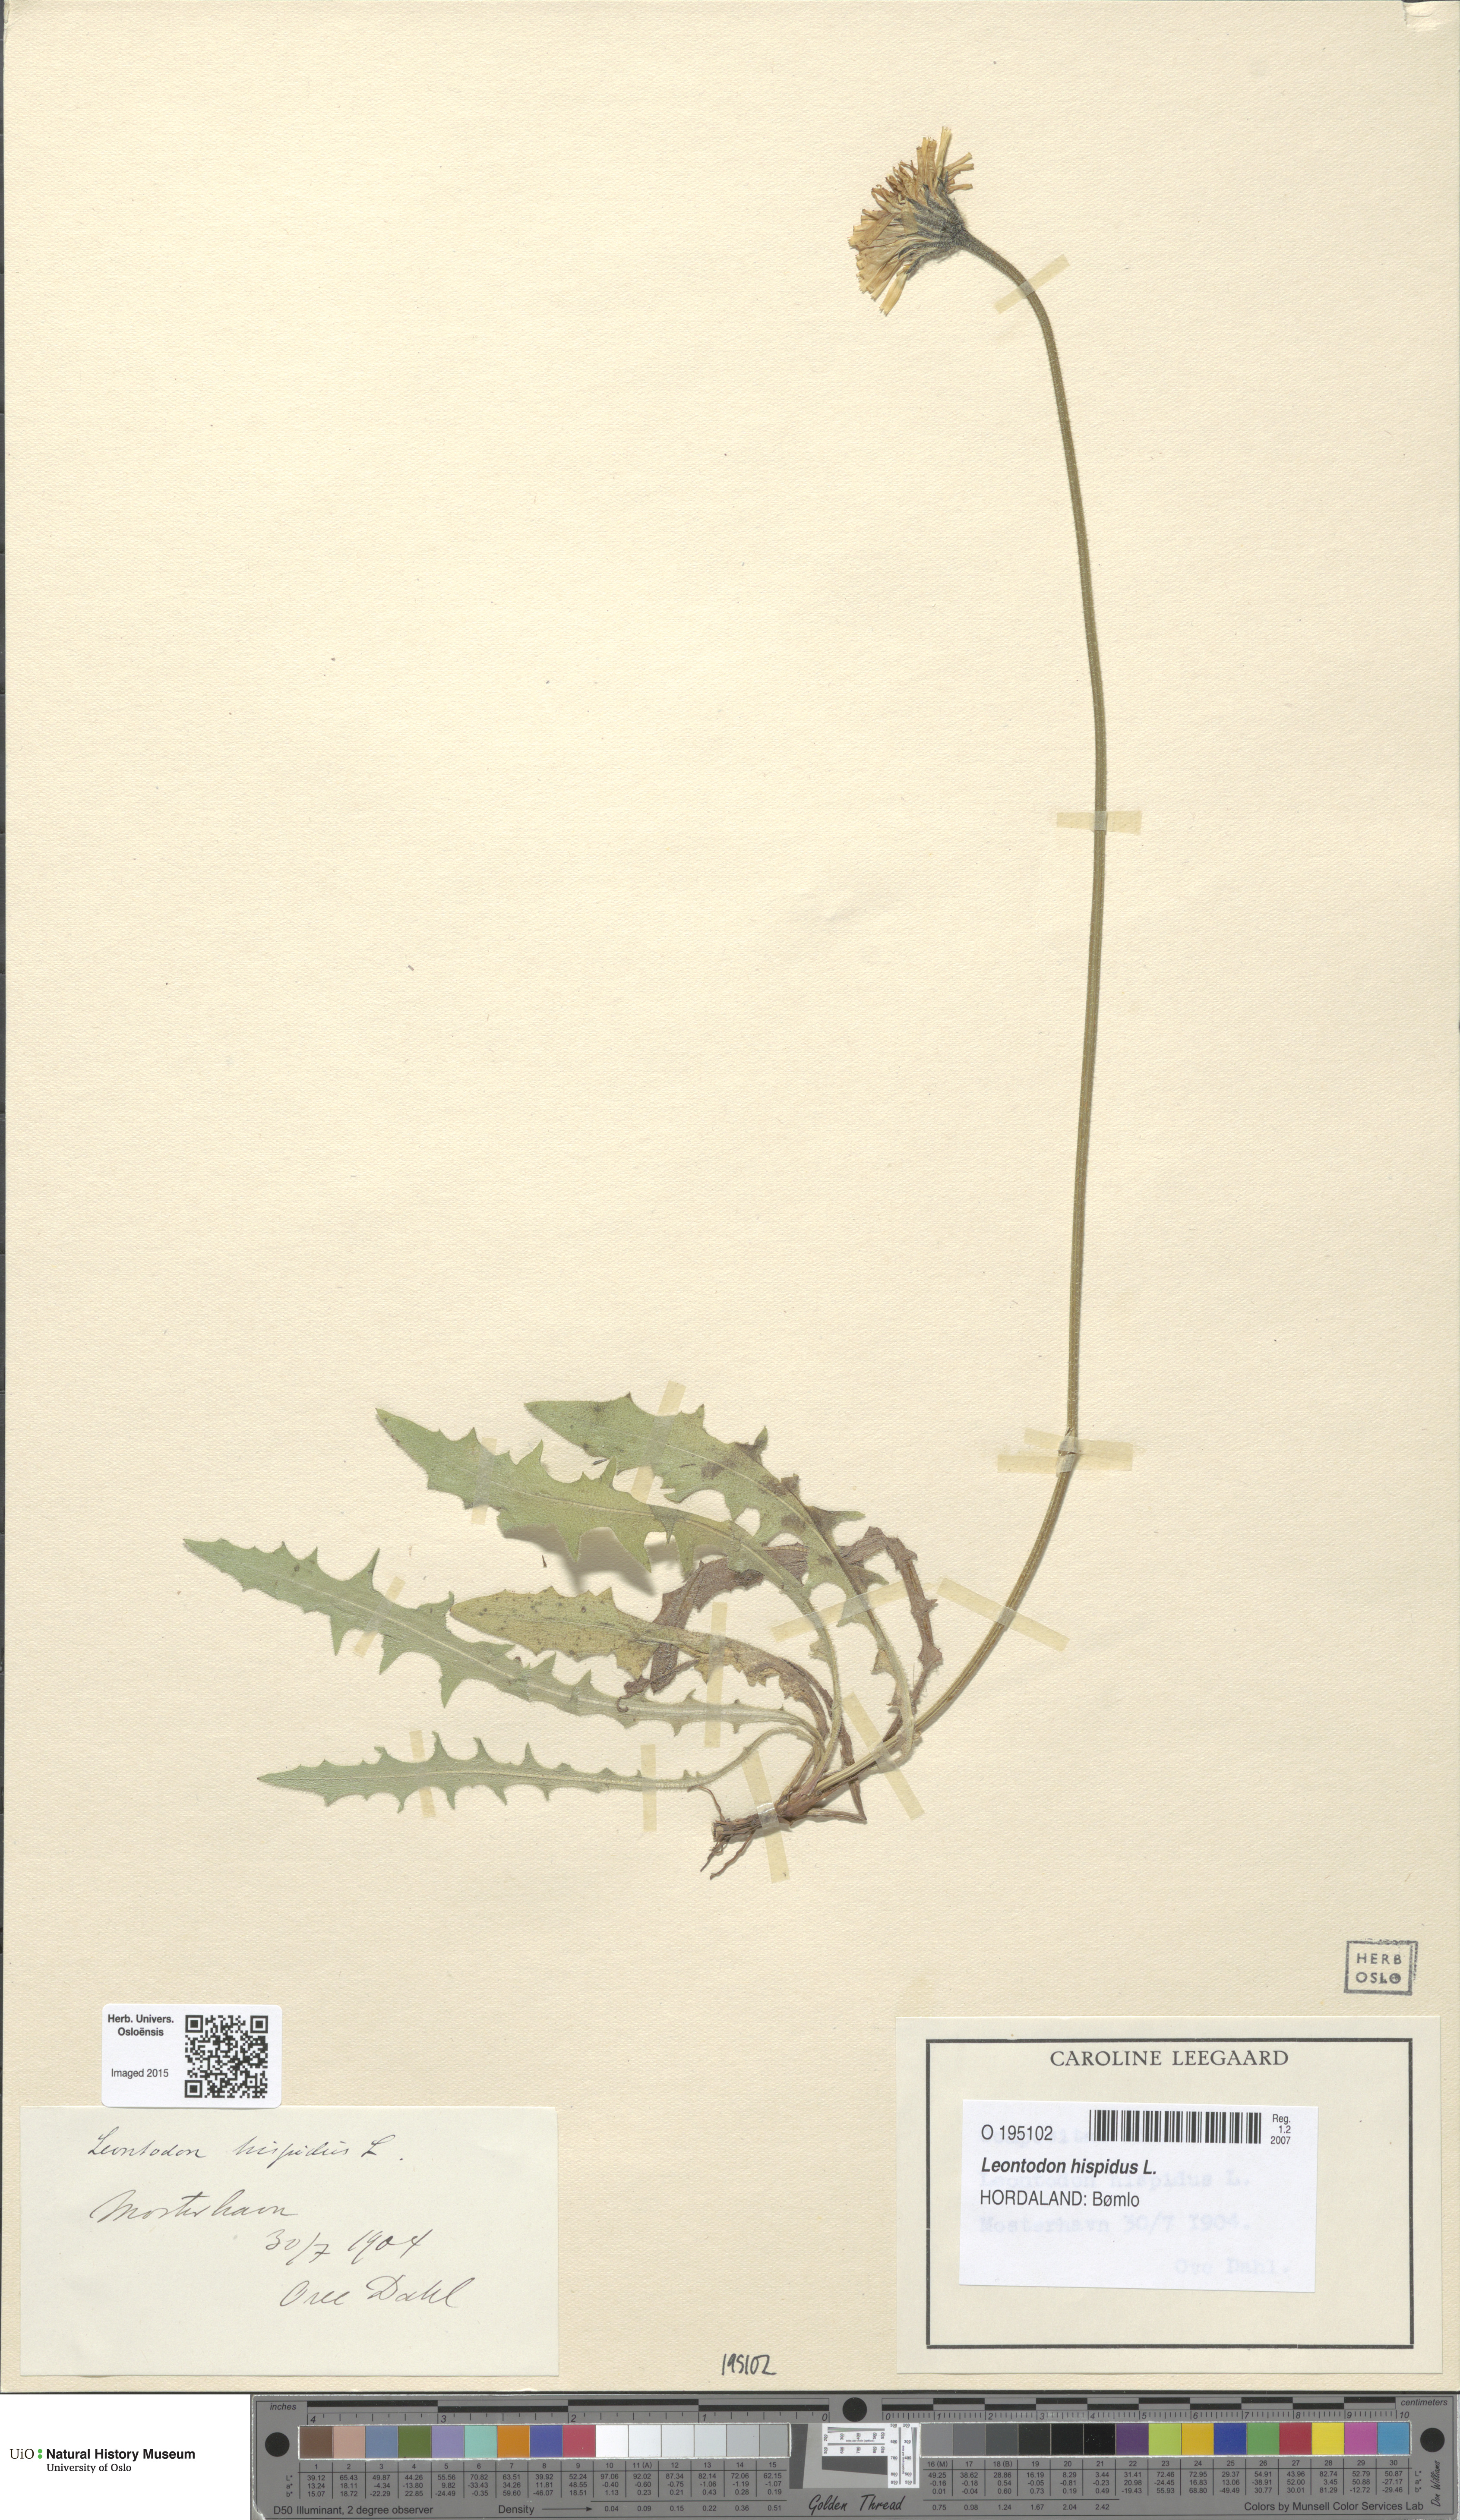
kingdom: Plantae
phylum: Tracheophyta
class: Magnoliopsida
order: Asterales
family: Asteraceae
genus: Leontodon
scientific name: Leontodon hispidus
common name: Rough hawkbit
